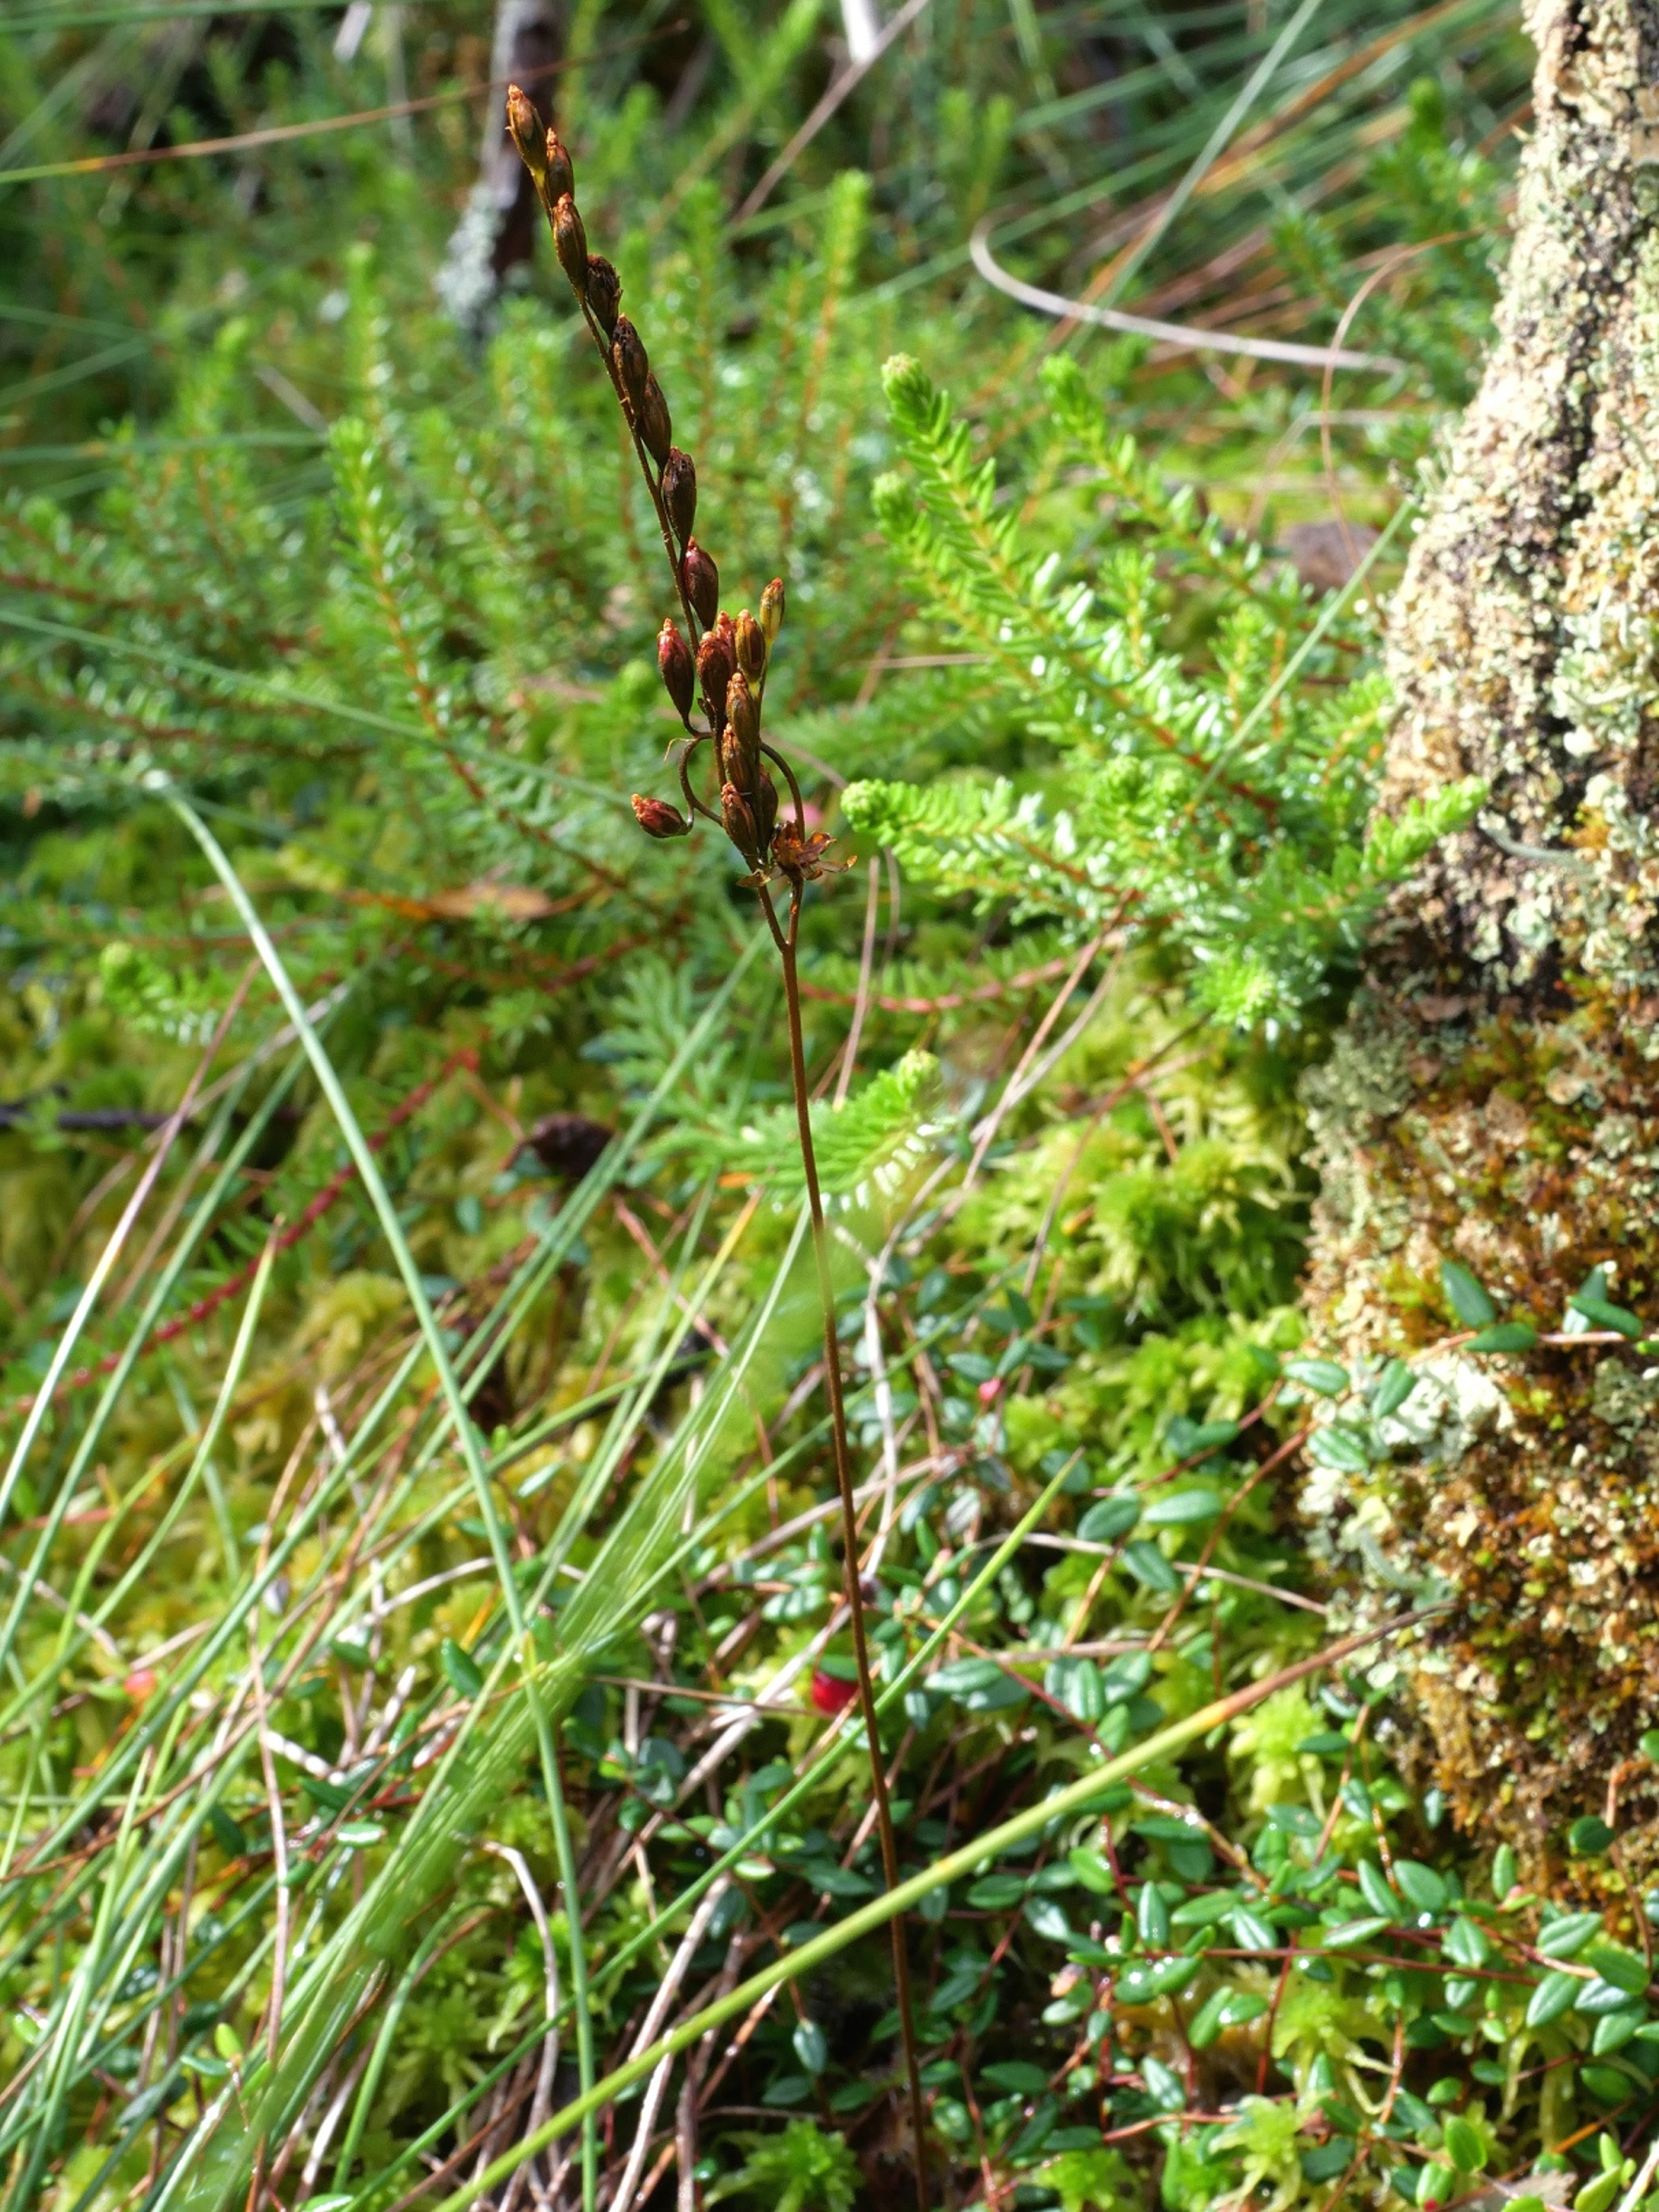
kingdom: Plantae
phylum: Tracheophyta
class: Magnoliopsida
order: Caryophyllales
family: Droseraceae
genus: Drosera
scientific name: Drosera rotundifolia
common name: Rundbladet soldug
